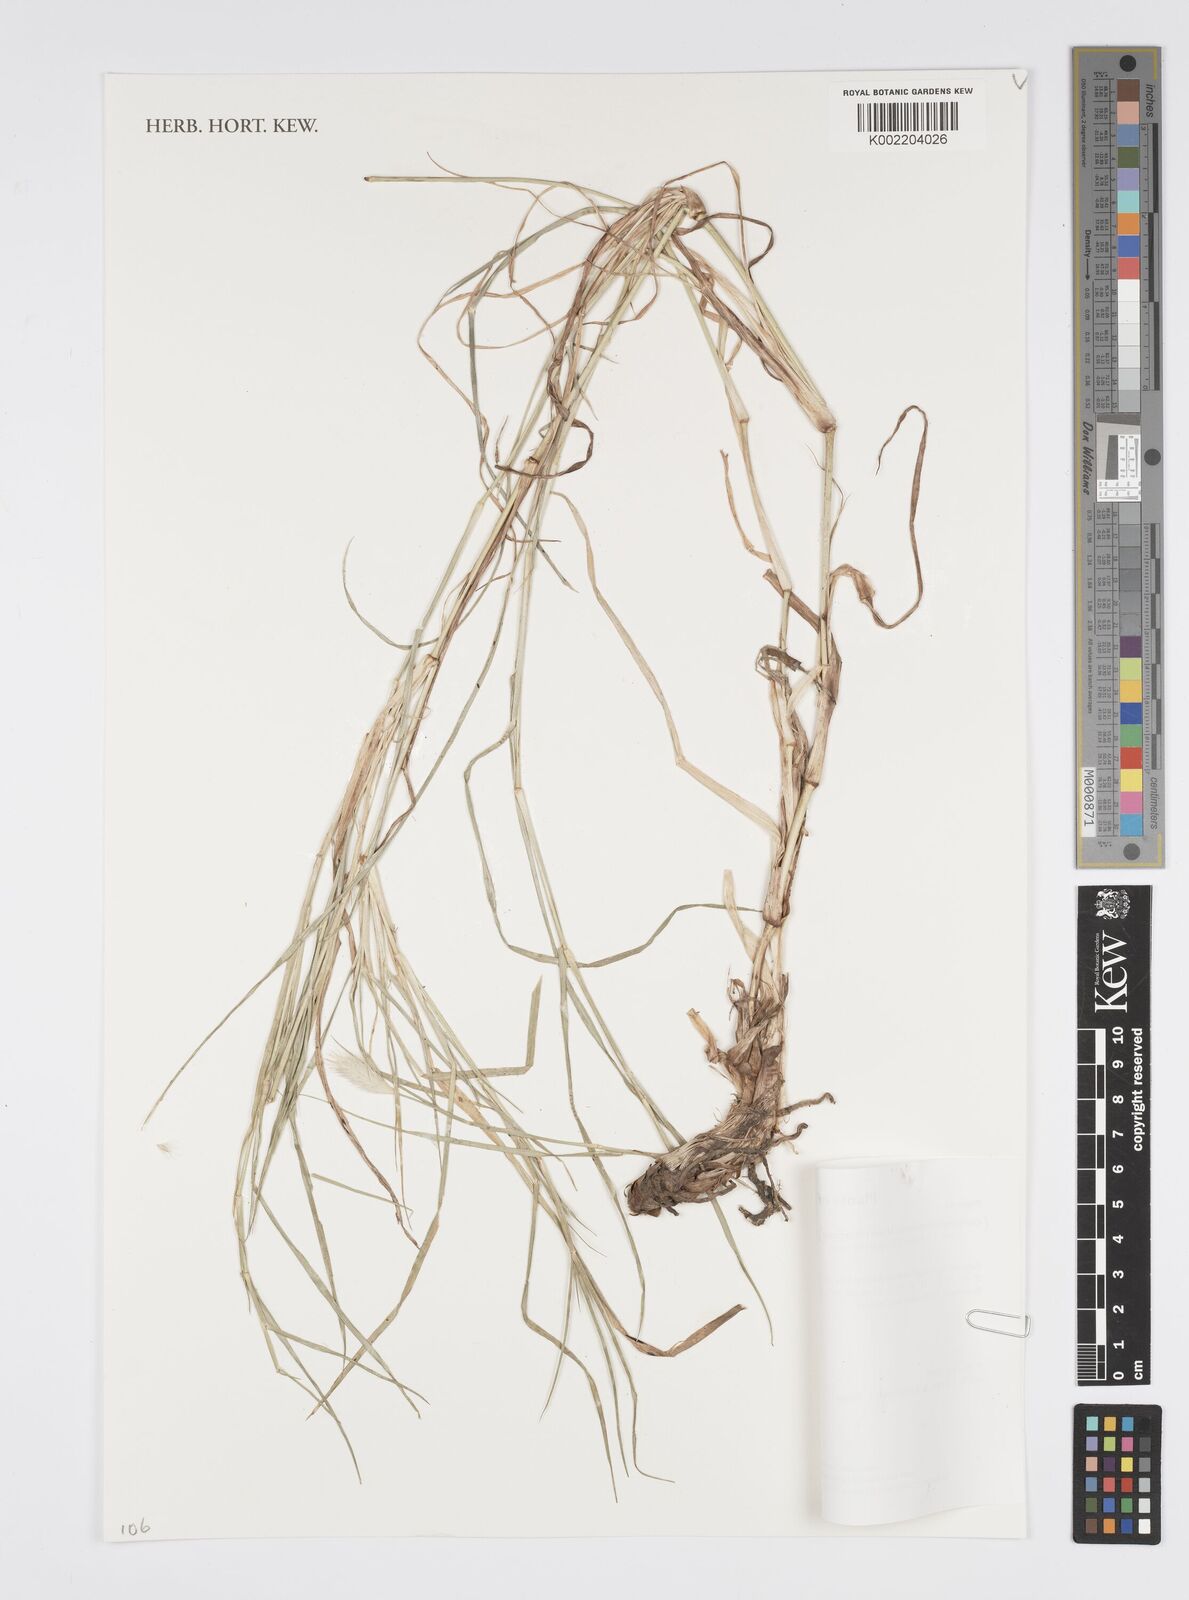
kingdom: Plantae
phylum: Tracheophyta
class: Liliopsida
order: Poales
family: Poaceae
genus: Cenchrus
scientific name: Cenchrus stramineus
